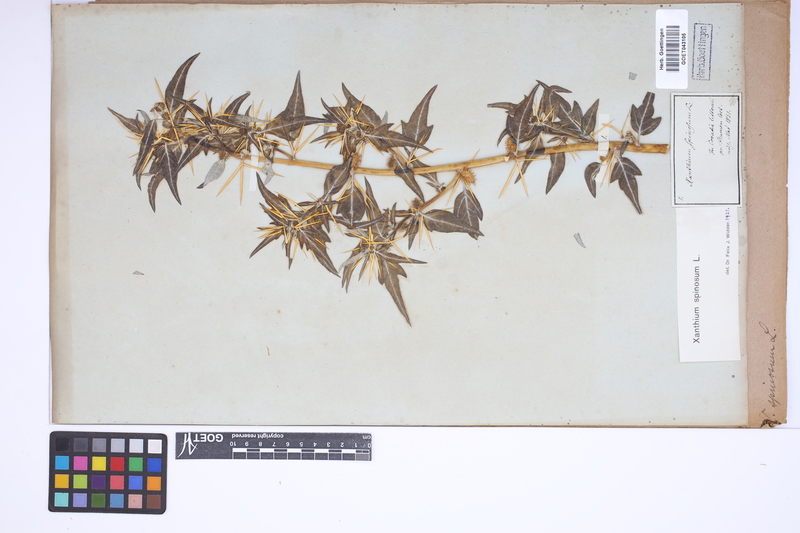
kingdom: Plantae
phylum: Tracheophyta
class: Magnoliopsida
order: Asterales
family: Asteraceae
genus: Xanthium
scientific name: Xanthium spinosum
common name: Spiny cocklebur
